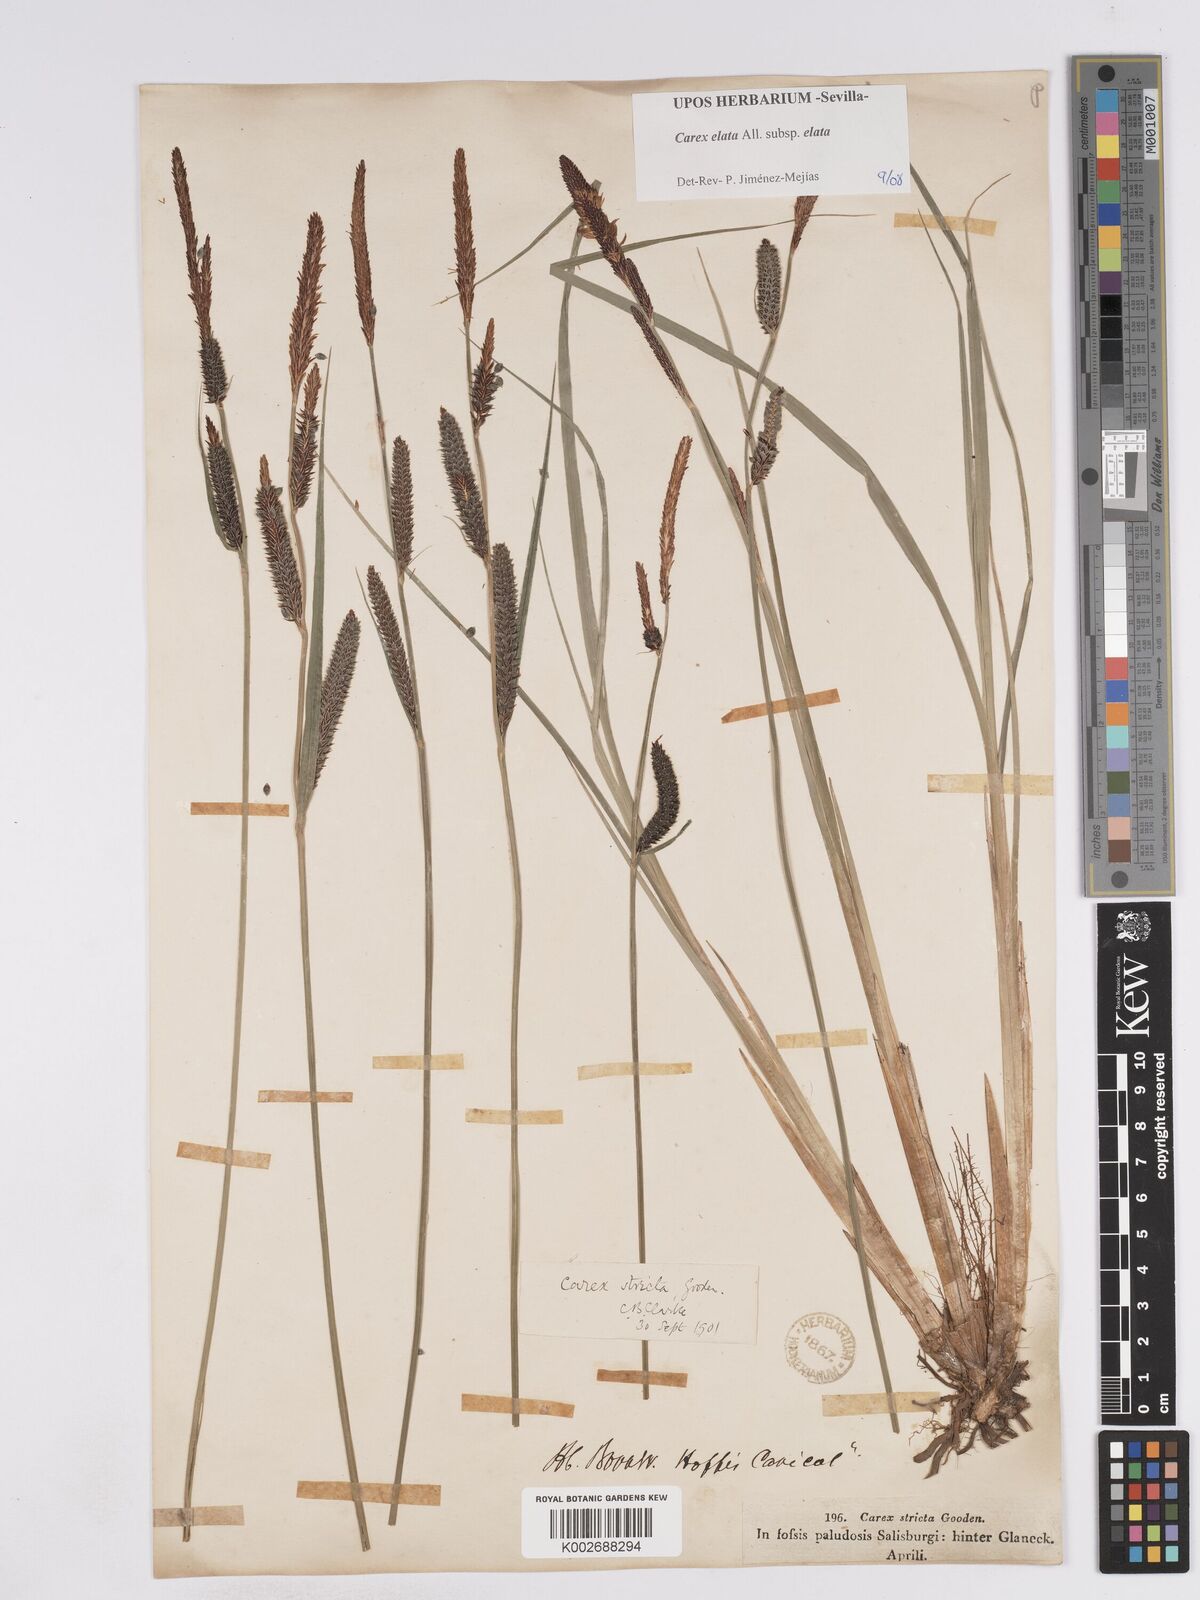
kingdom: Plantae
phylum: Tracheophyta
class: Liliopsida
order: Poales
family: Cyperaceae
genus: Carex
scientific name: Carex elata
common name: Tufted sedge
